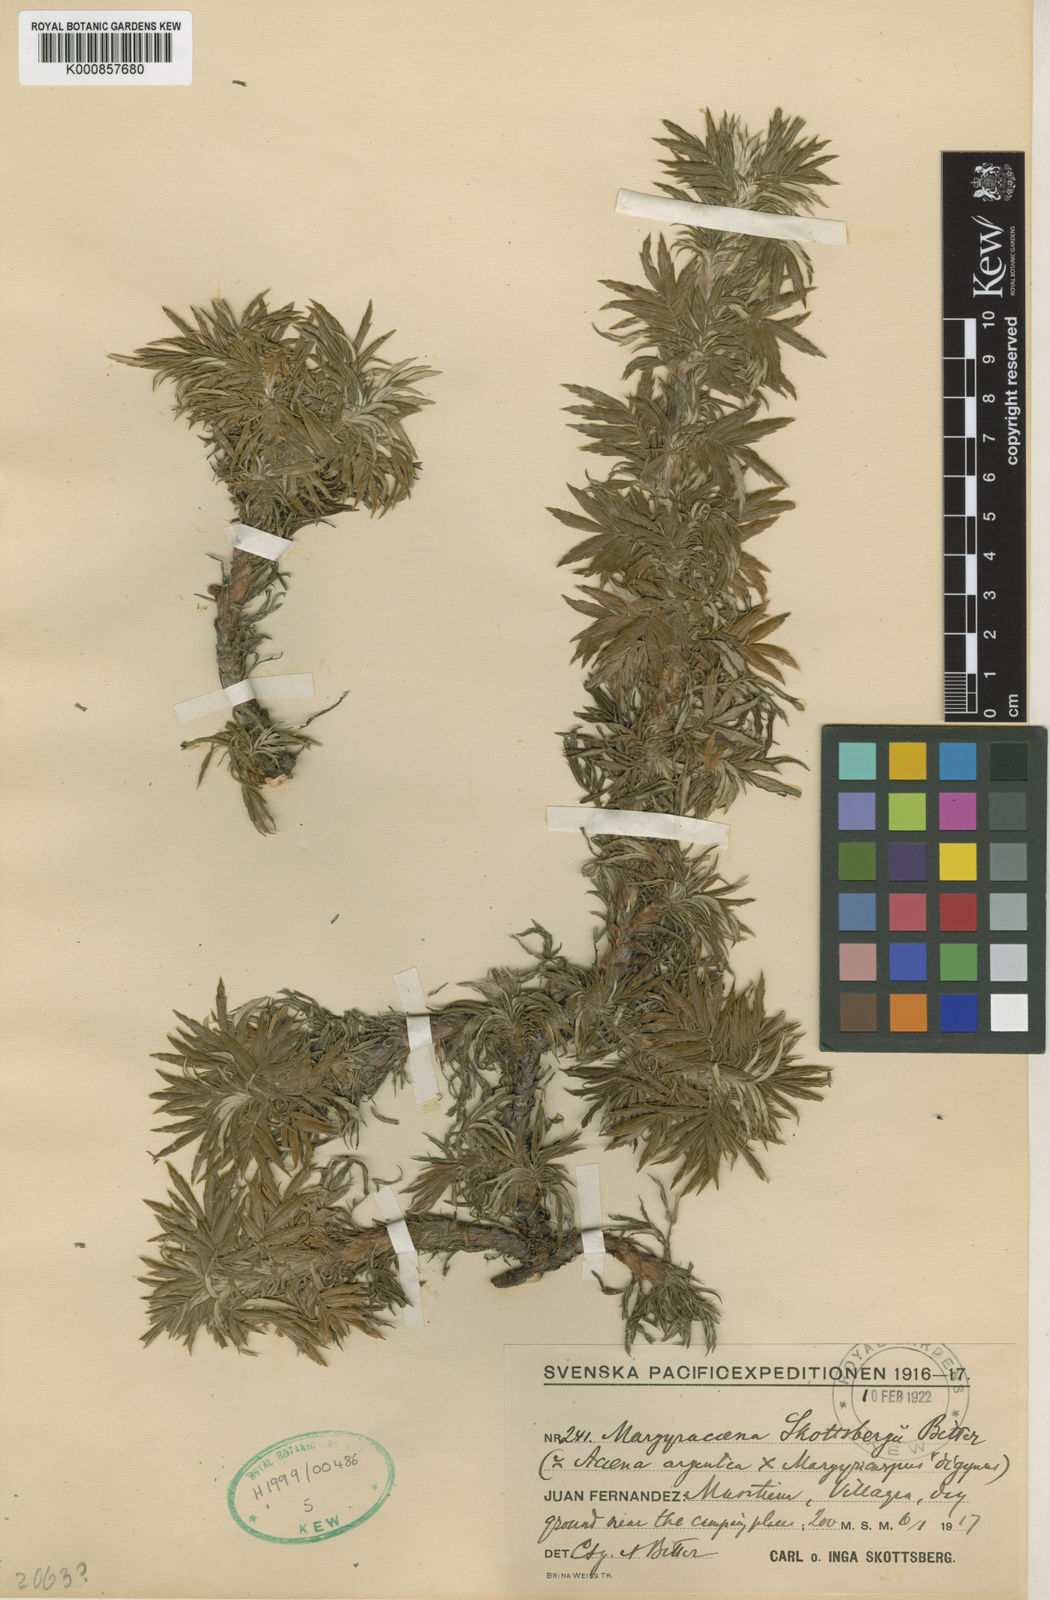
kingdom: Plantae
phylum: Tracheophyta
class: Magnoliopsida
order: Rosales
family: Rosaceae
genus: Acaena
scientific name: Acaena argentea
